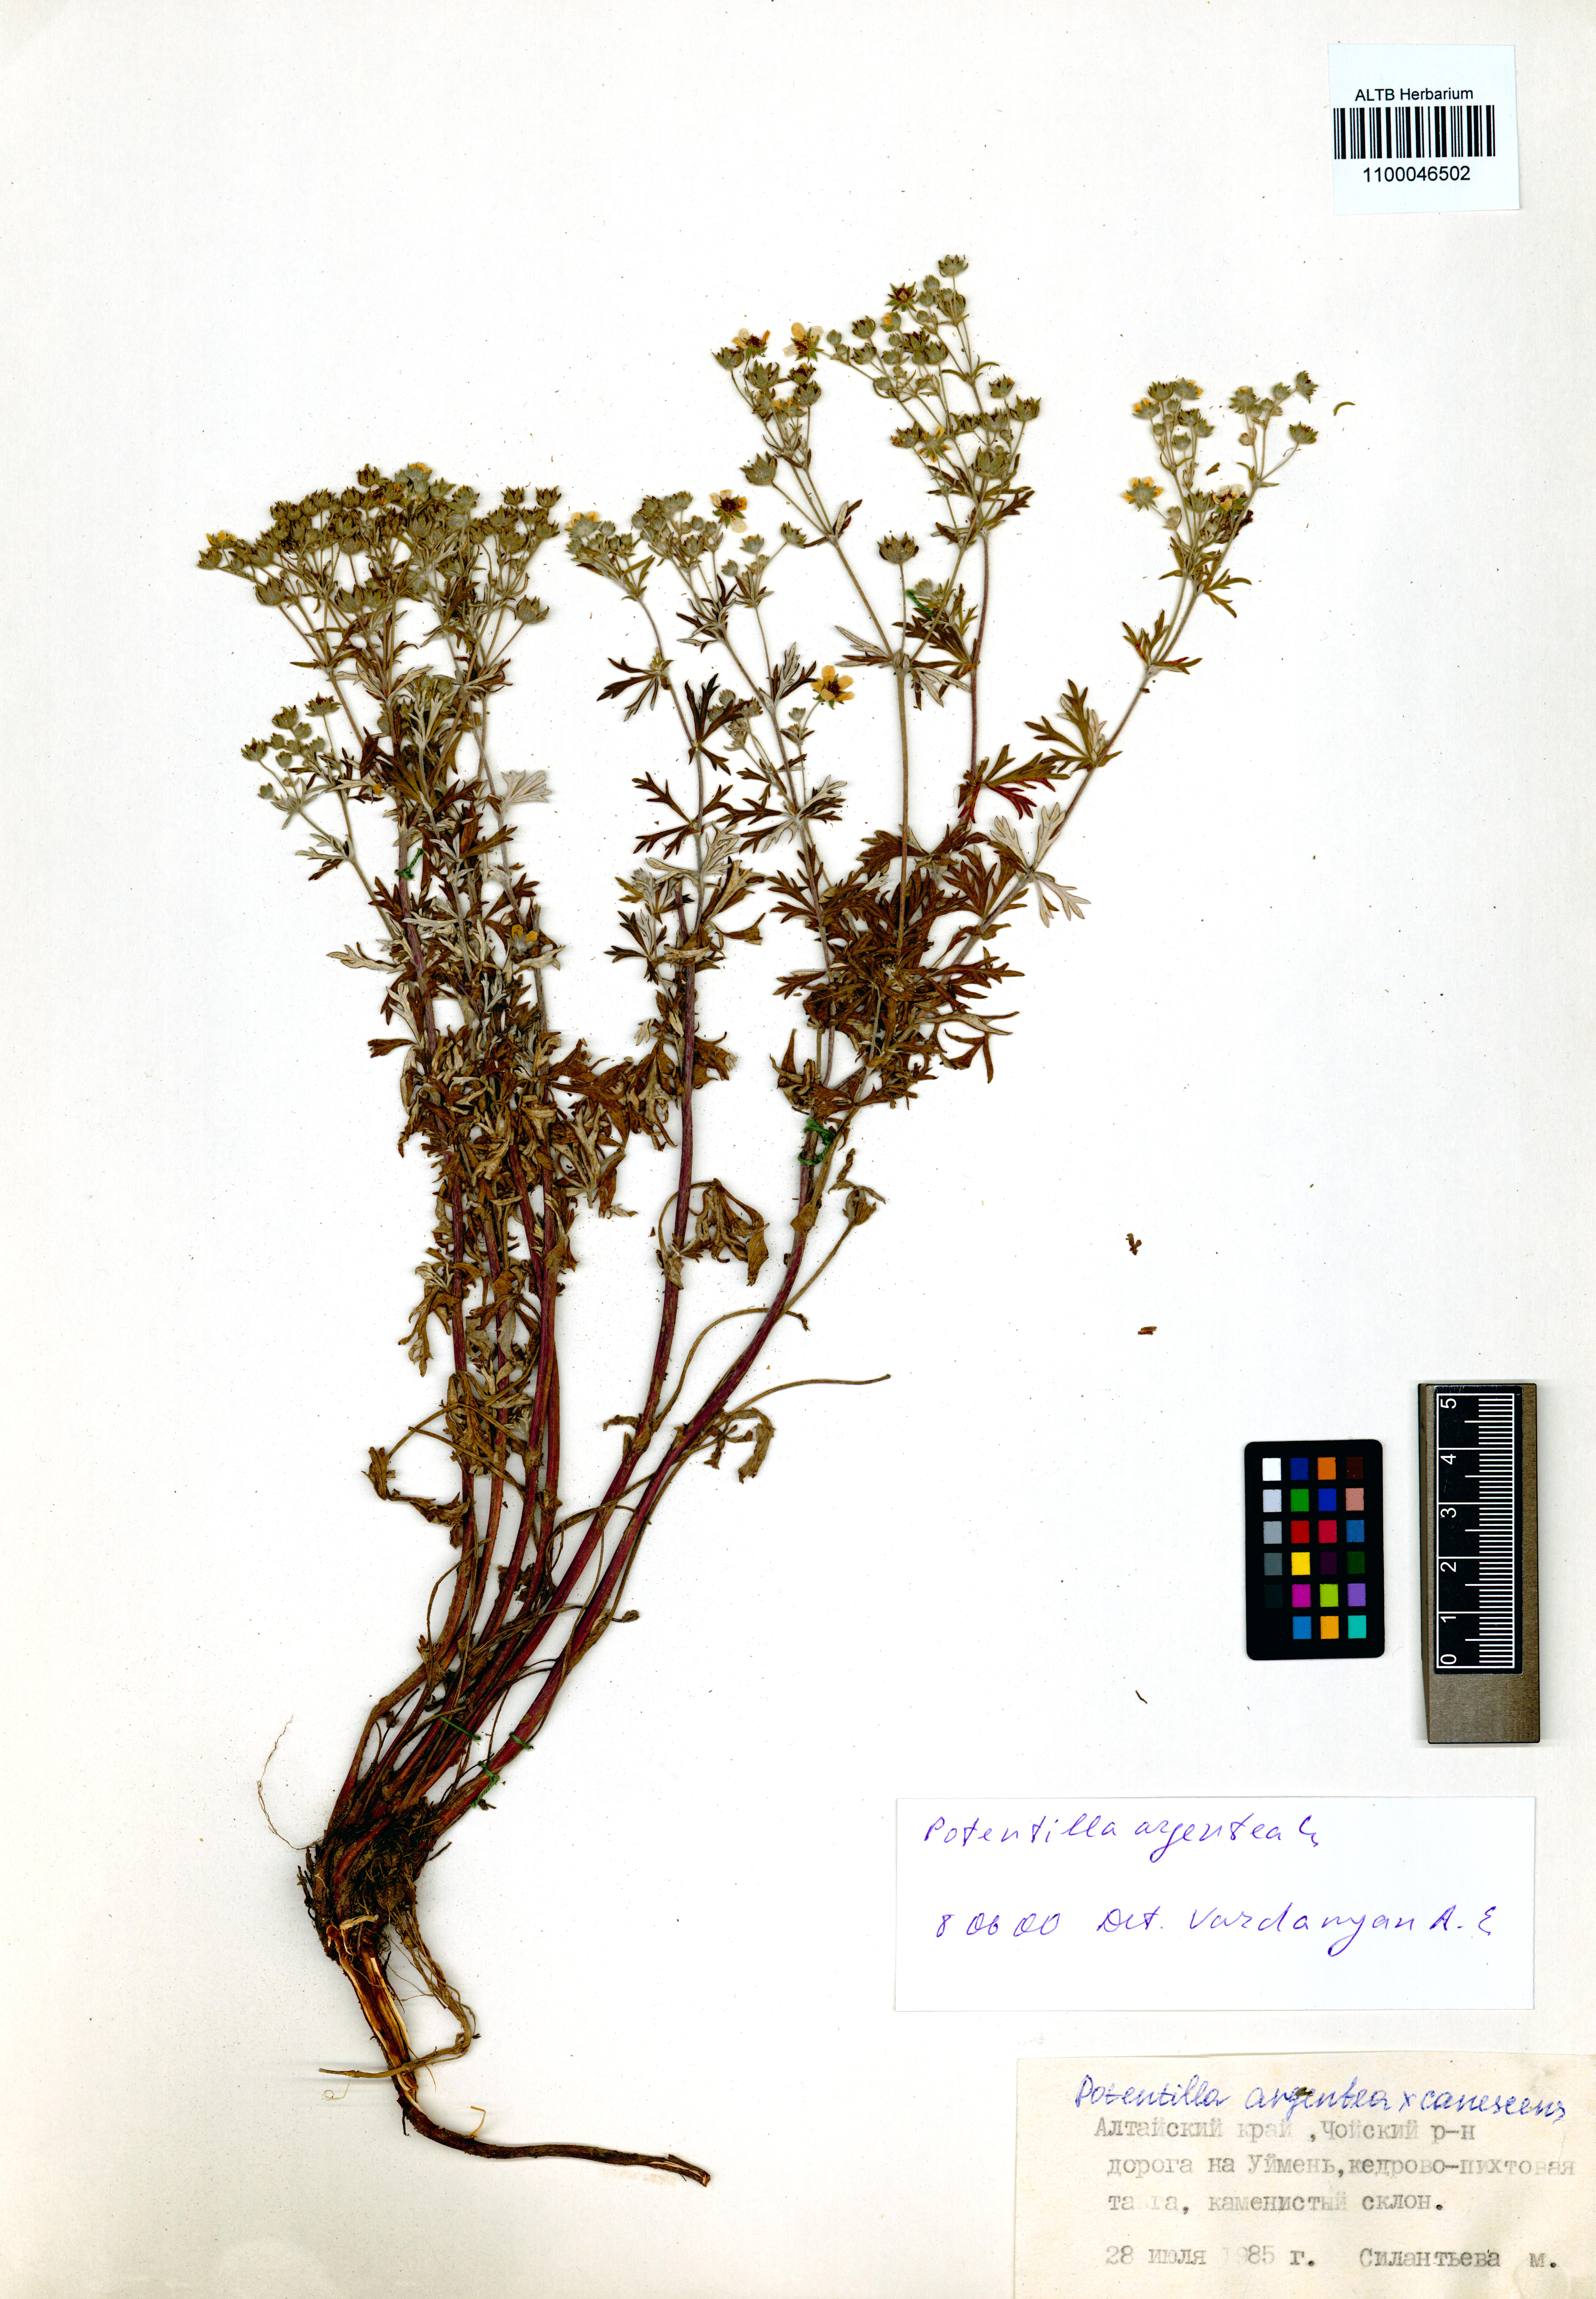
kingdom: Plantae
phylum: Tracheophyta
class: Magnoliopsida
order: Rosales
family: Rosaceae
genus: Potentilla
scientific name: Potentilla argentea
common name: Hoary cinquefoil
